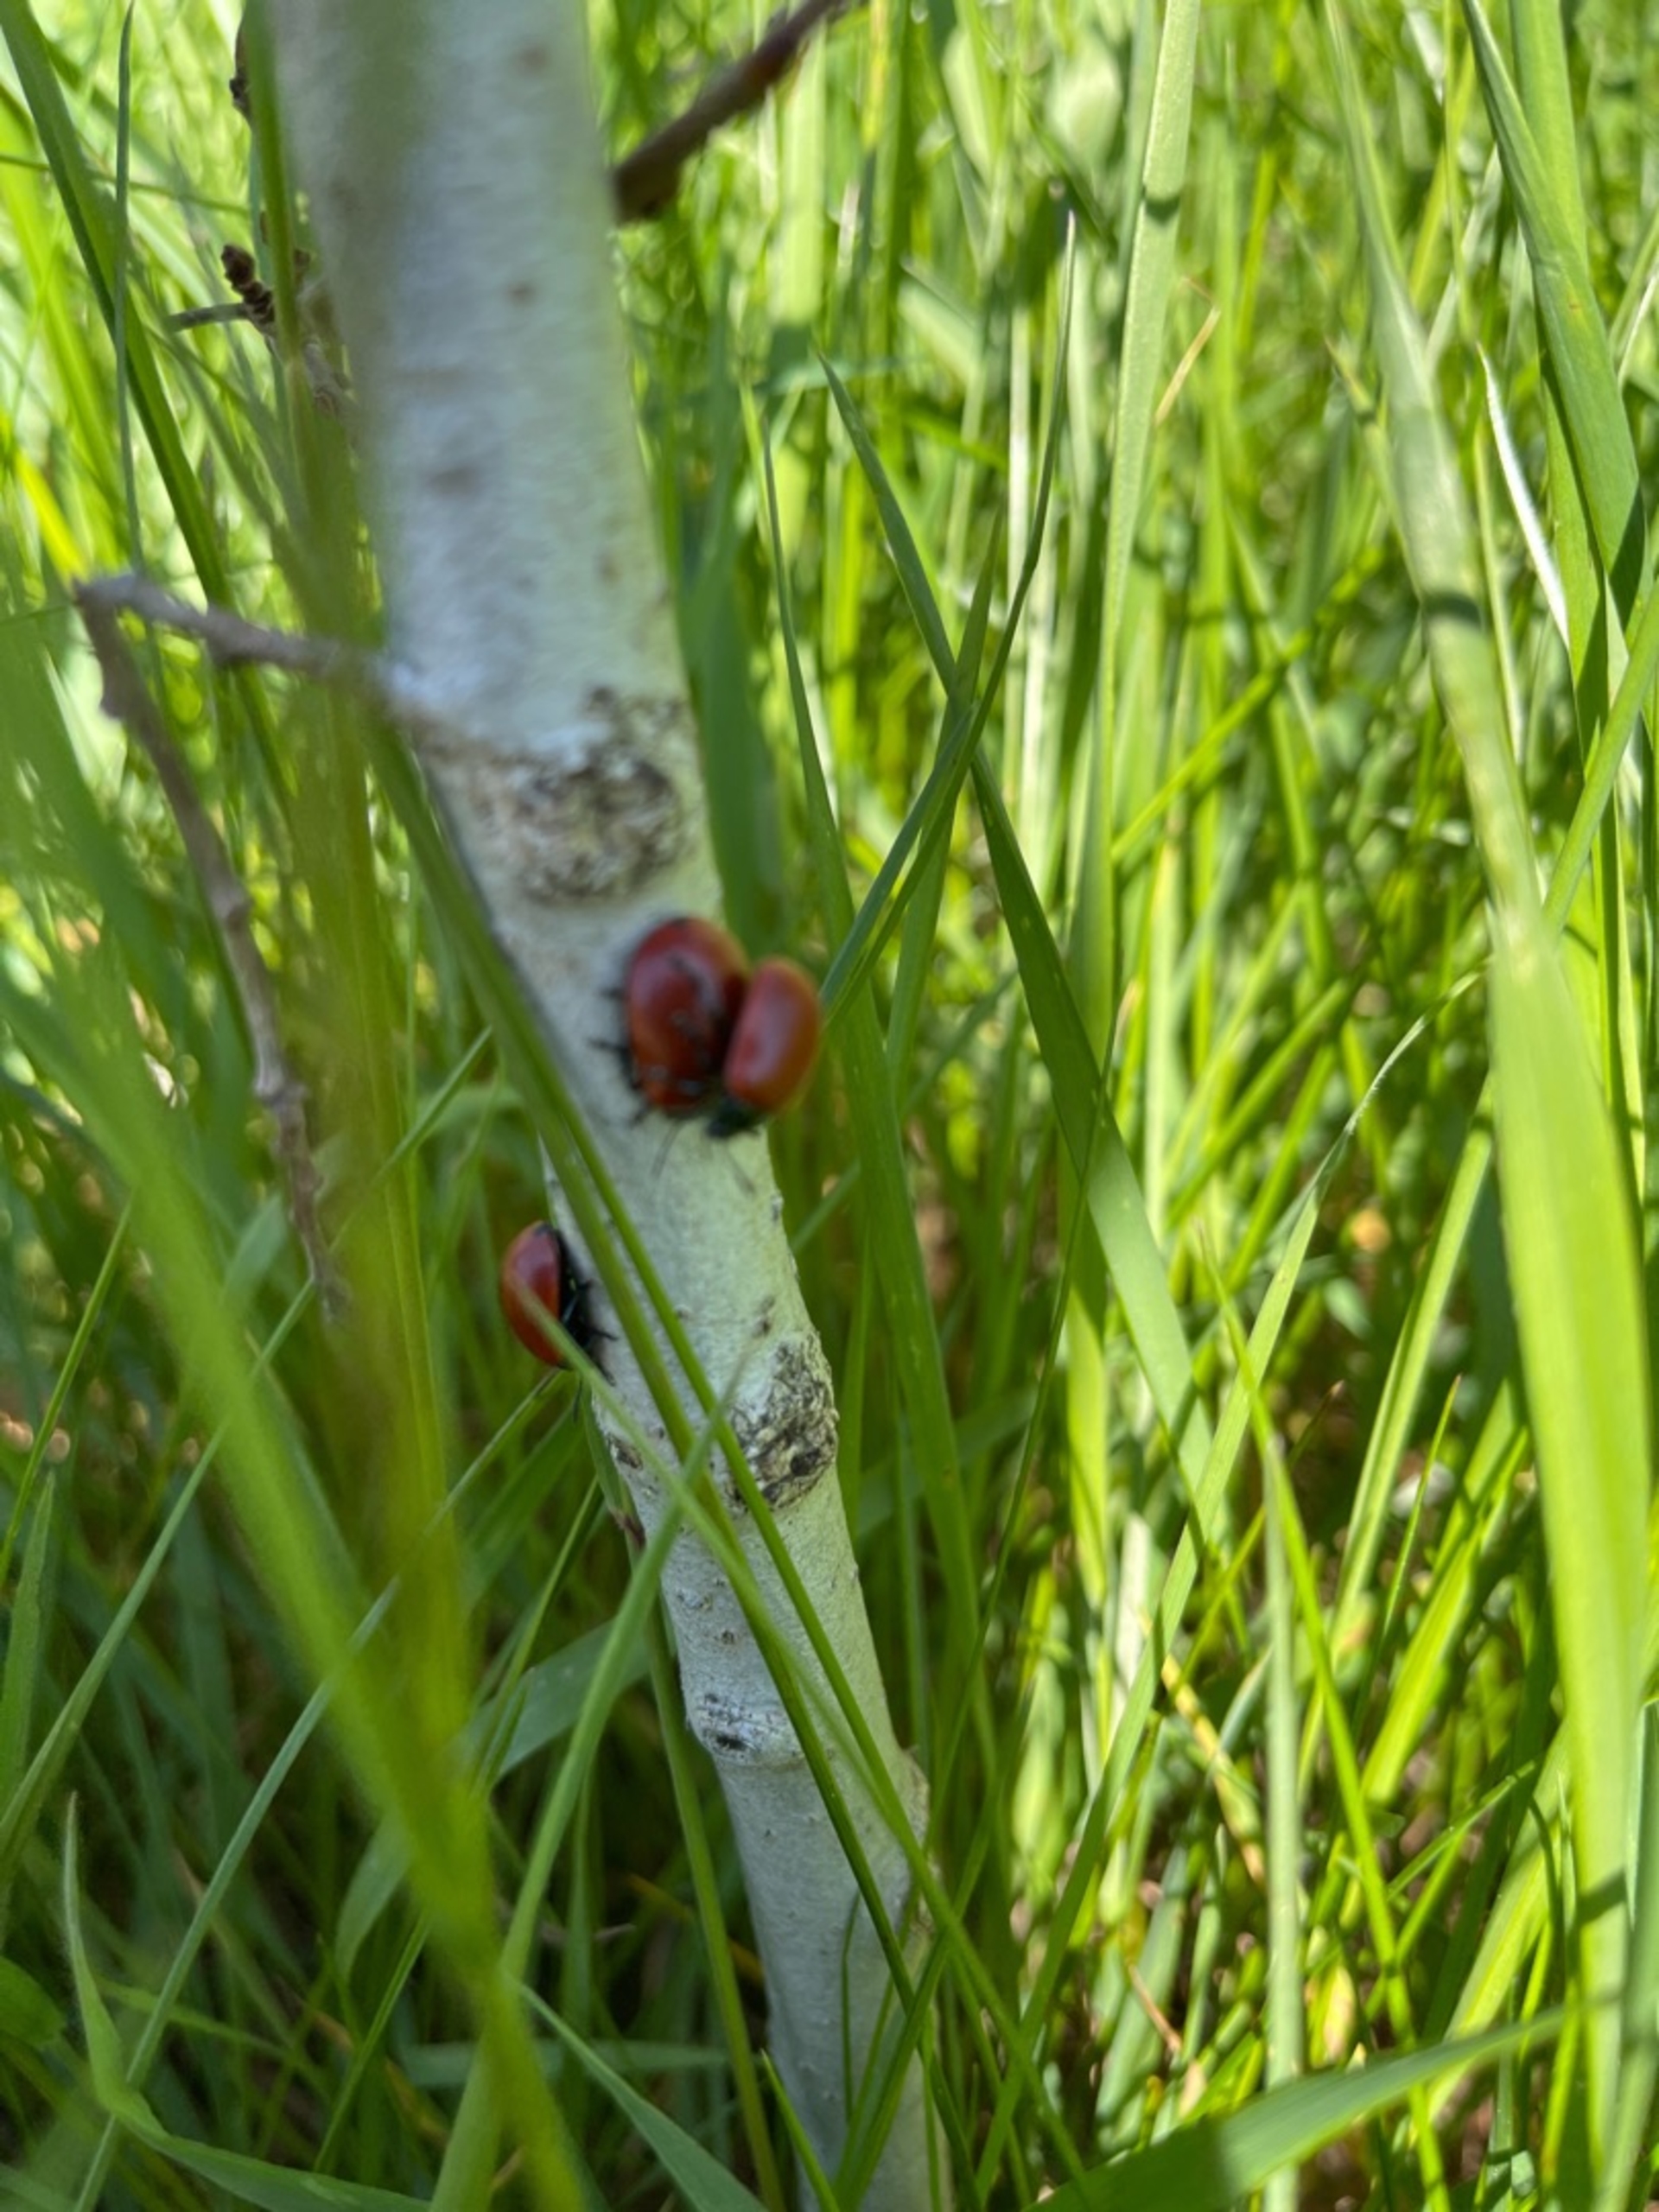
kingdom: Animalia
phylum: Arthropoda
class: Insecta
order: Coleoptera
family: Chrysomelidae
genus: Chrysomela
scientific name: Chrysomela populi
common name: Poppelbladbille
